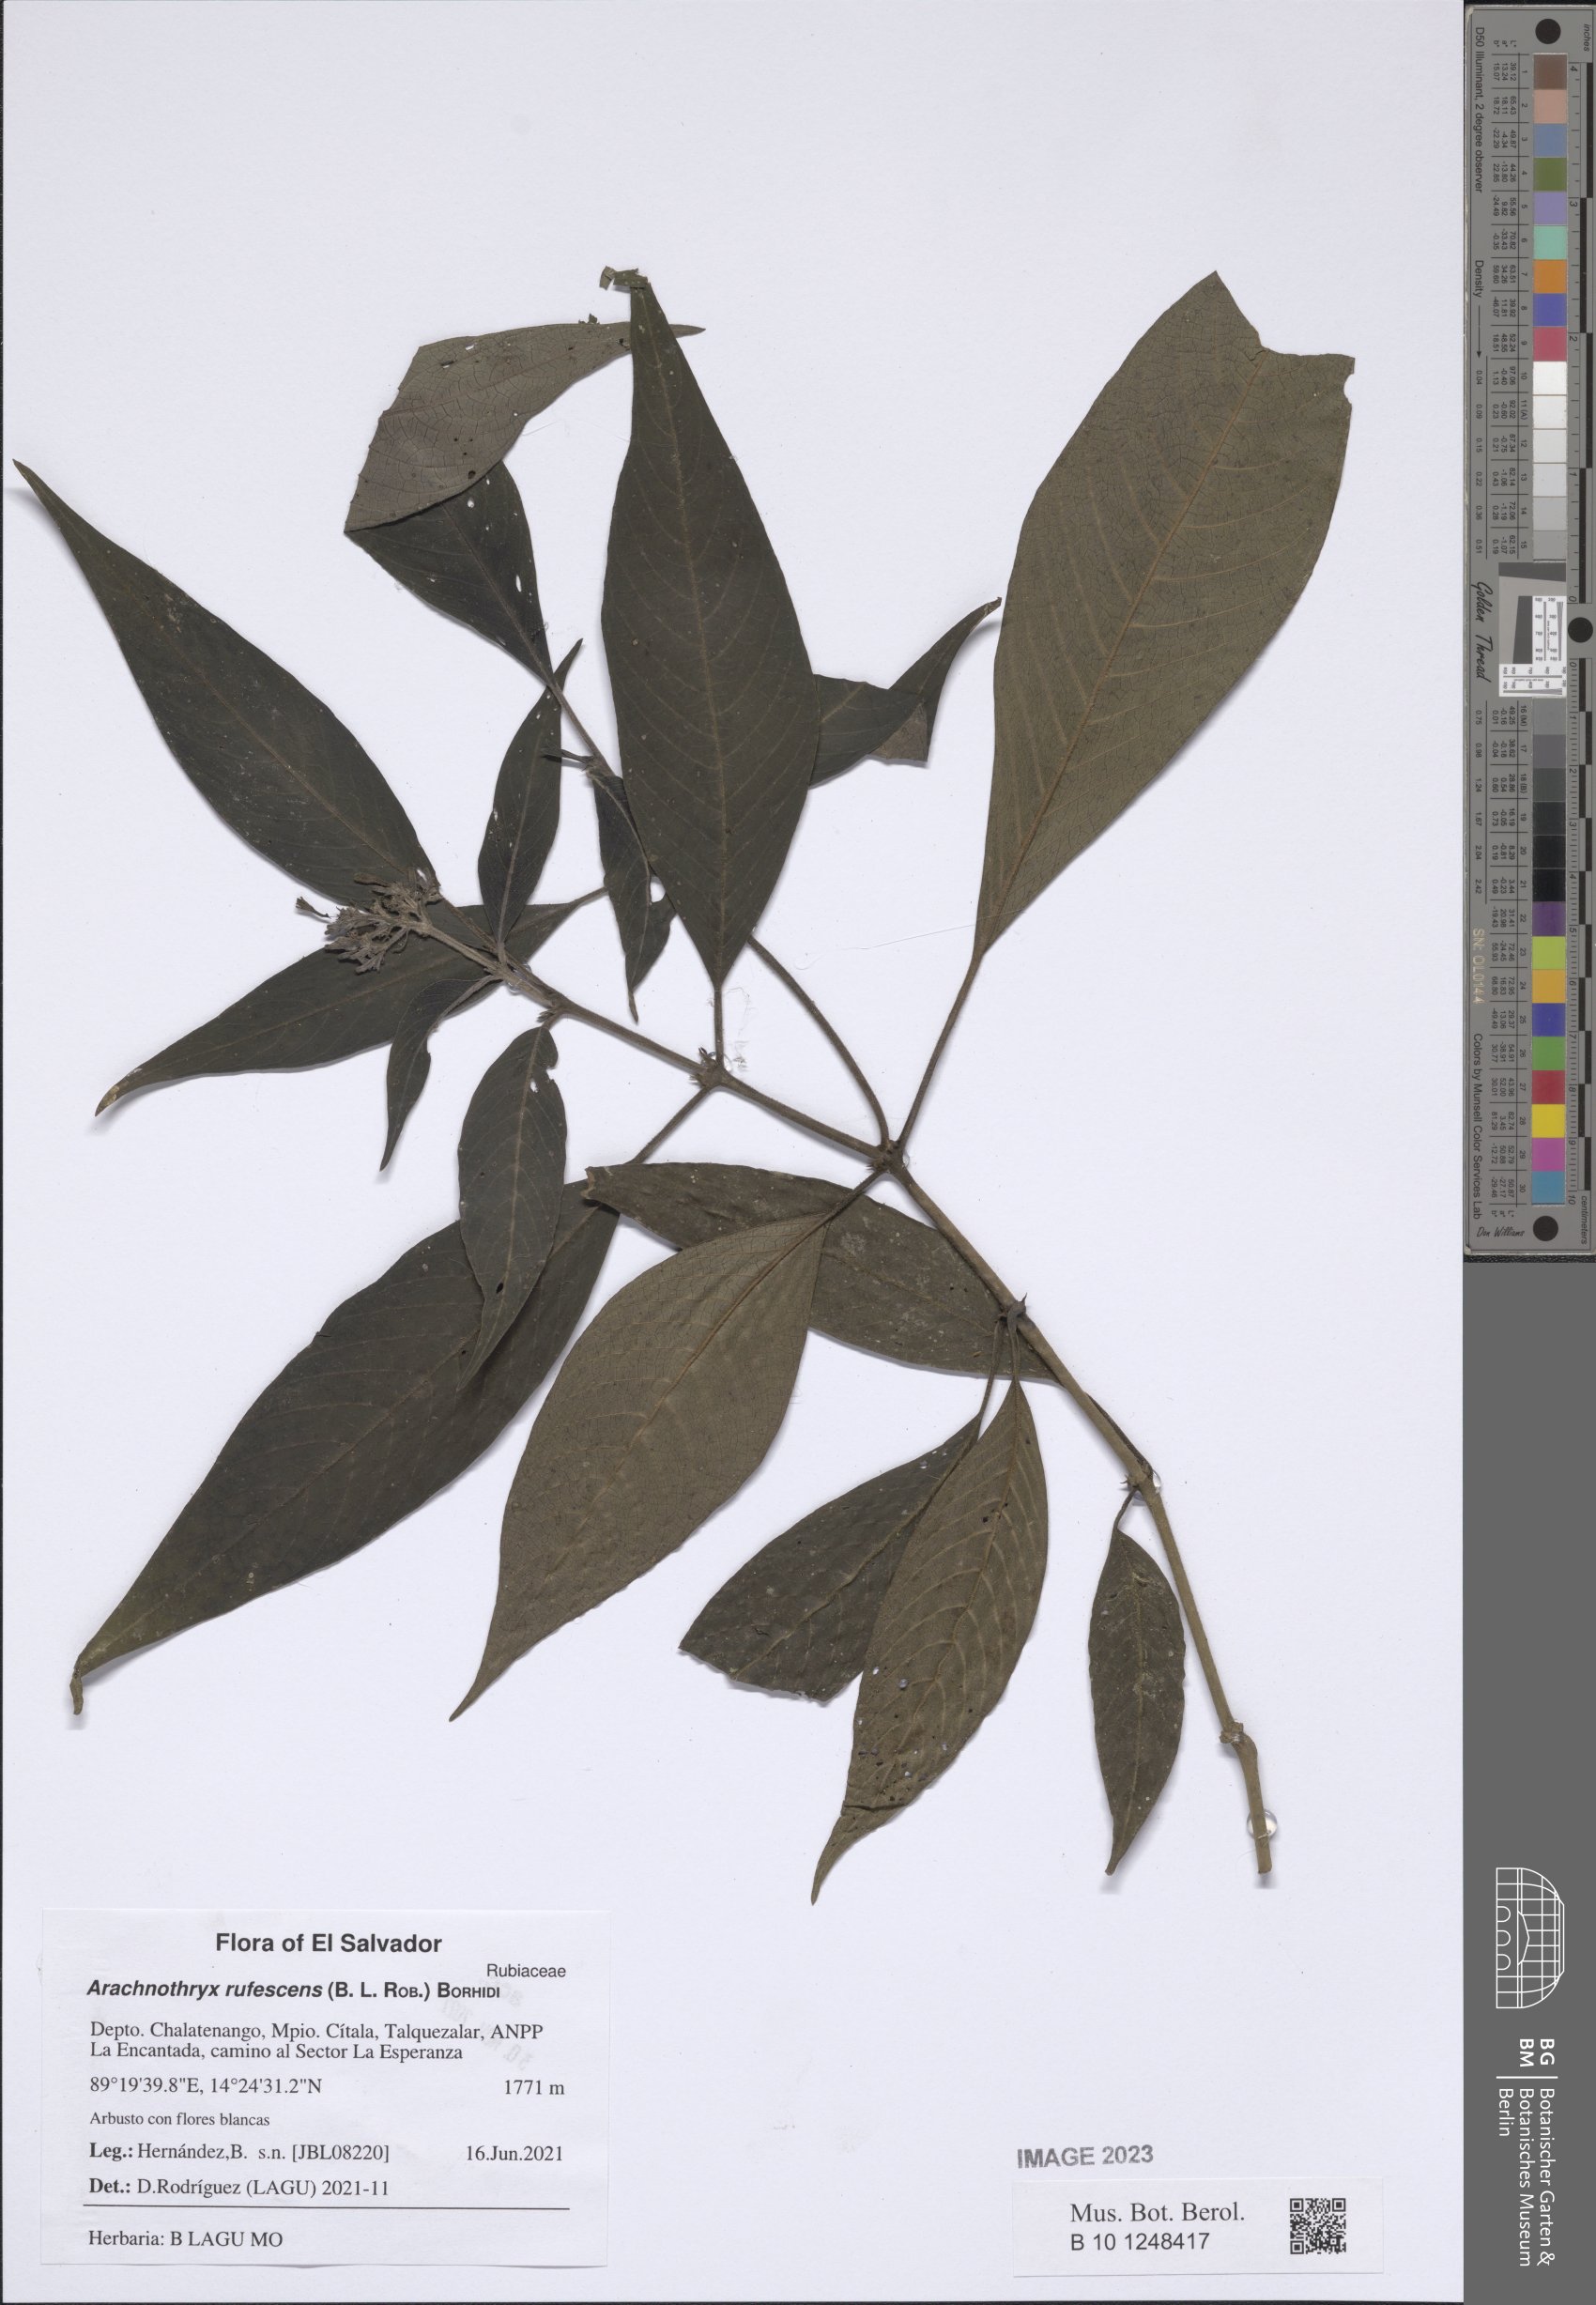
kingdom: Plantae
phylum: Tracheophyta
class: Magnoliopsida
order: Gentianales
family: Rubiaceae
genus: Arachnothryx
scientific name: Arachnothryx rufescens
